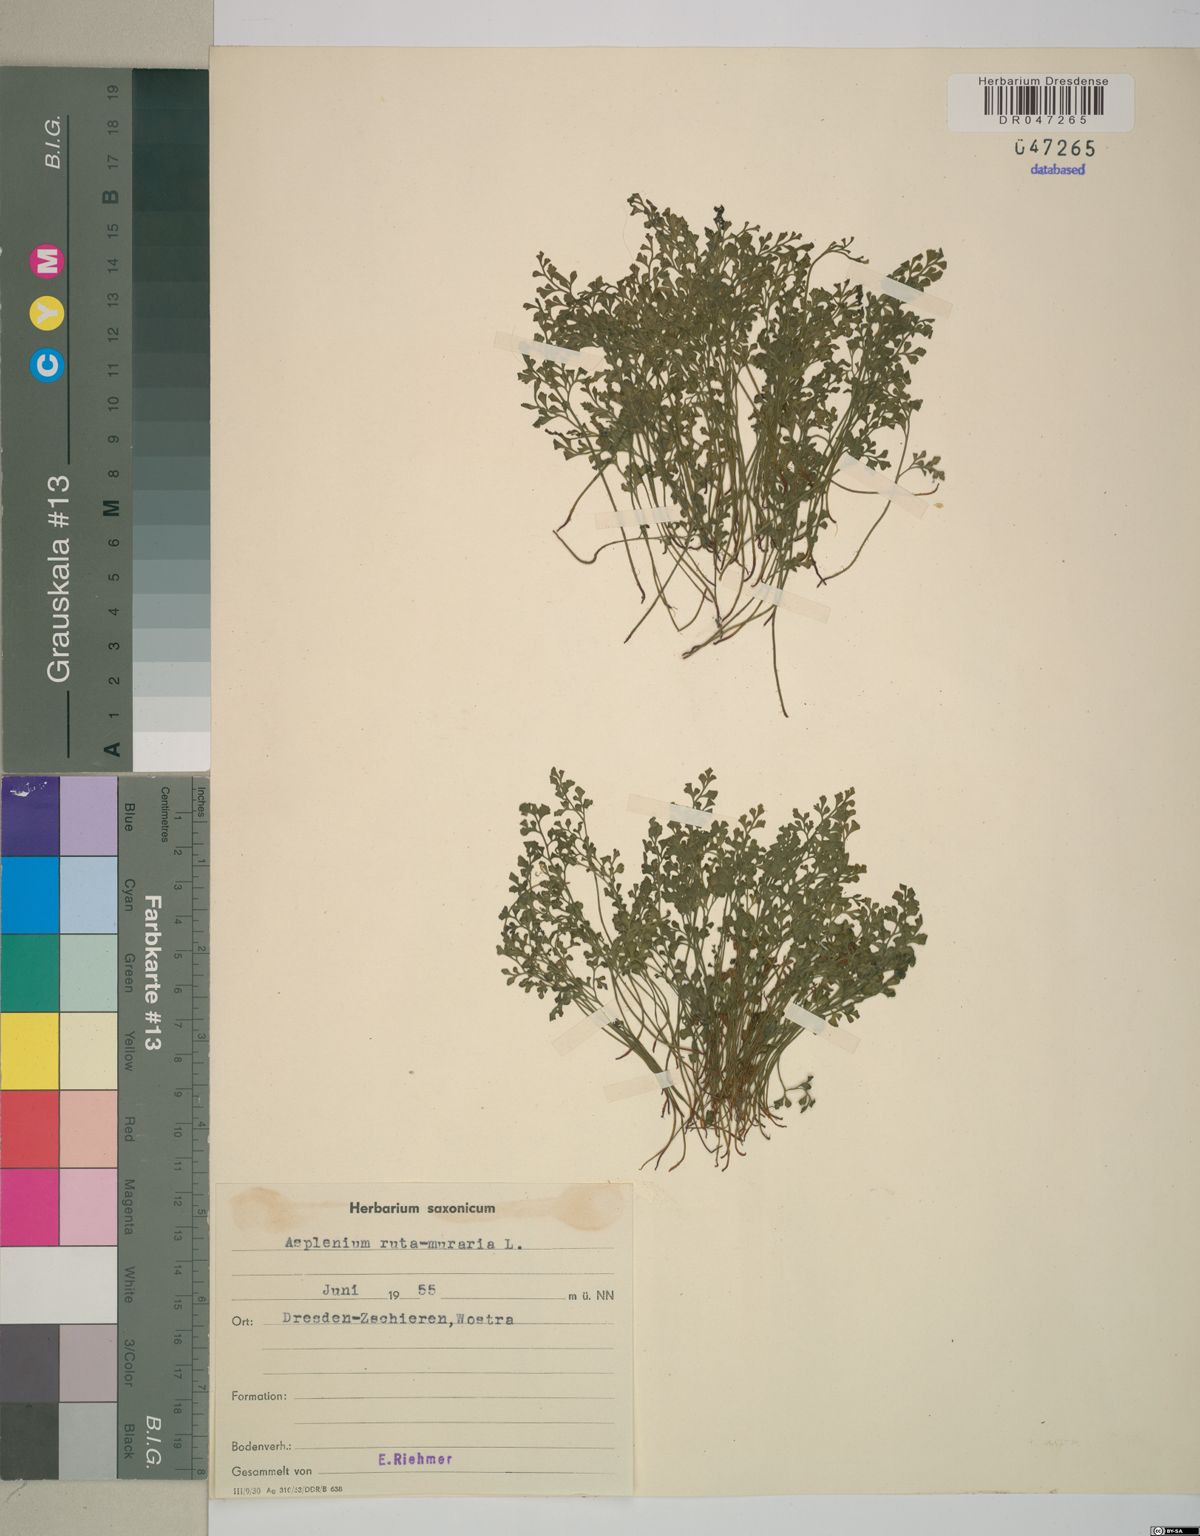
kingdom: Plantae
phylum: Tracheophyta
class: Polypodiopsida
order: Polypodiales
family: Aspleniaceae
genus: Asplenium
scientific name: Asplenium ruta-muraria
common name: Wall-rue
